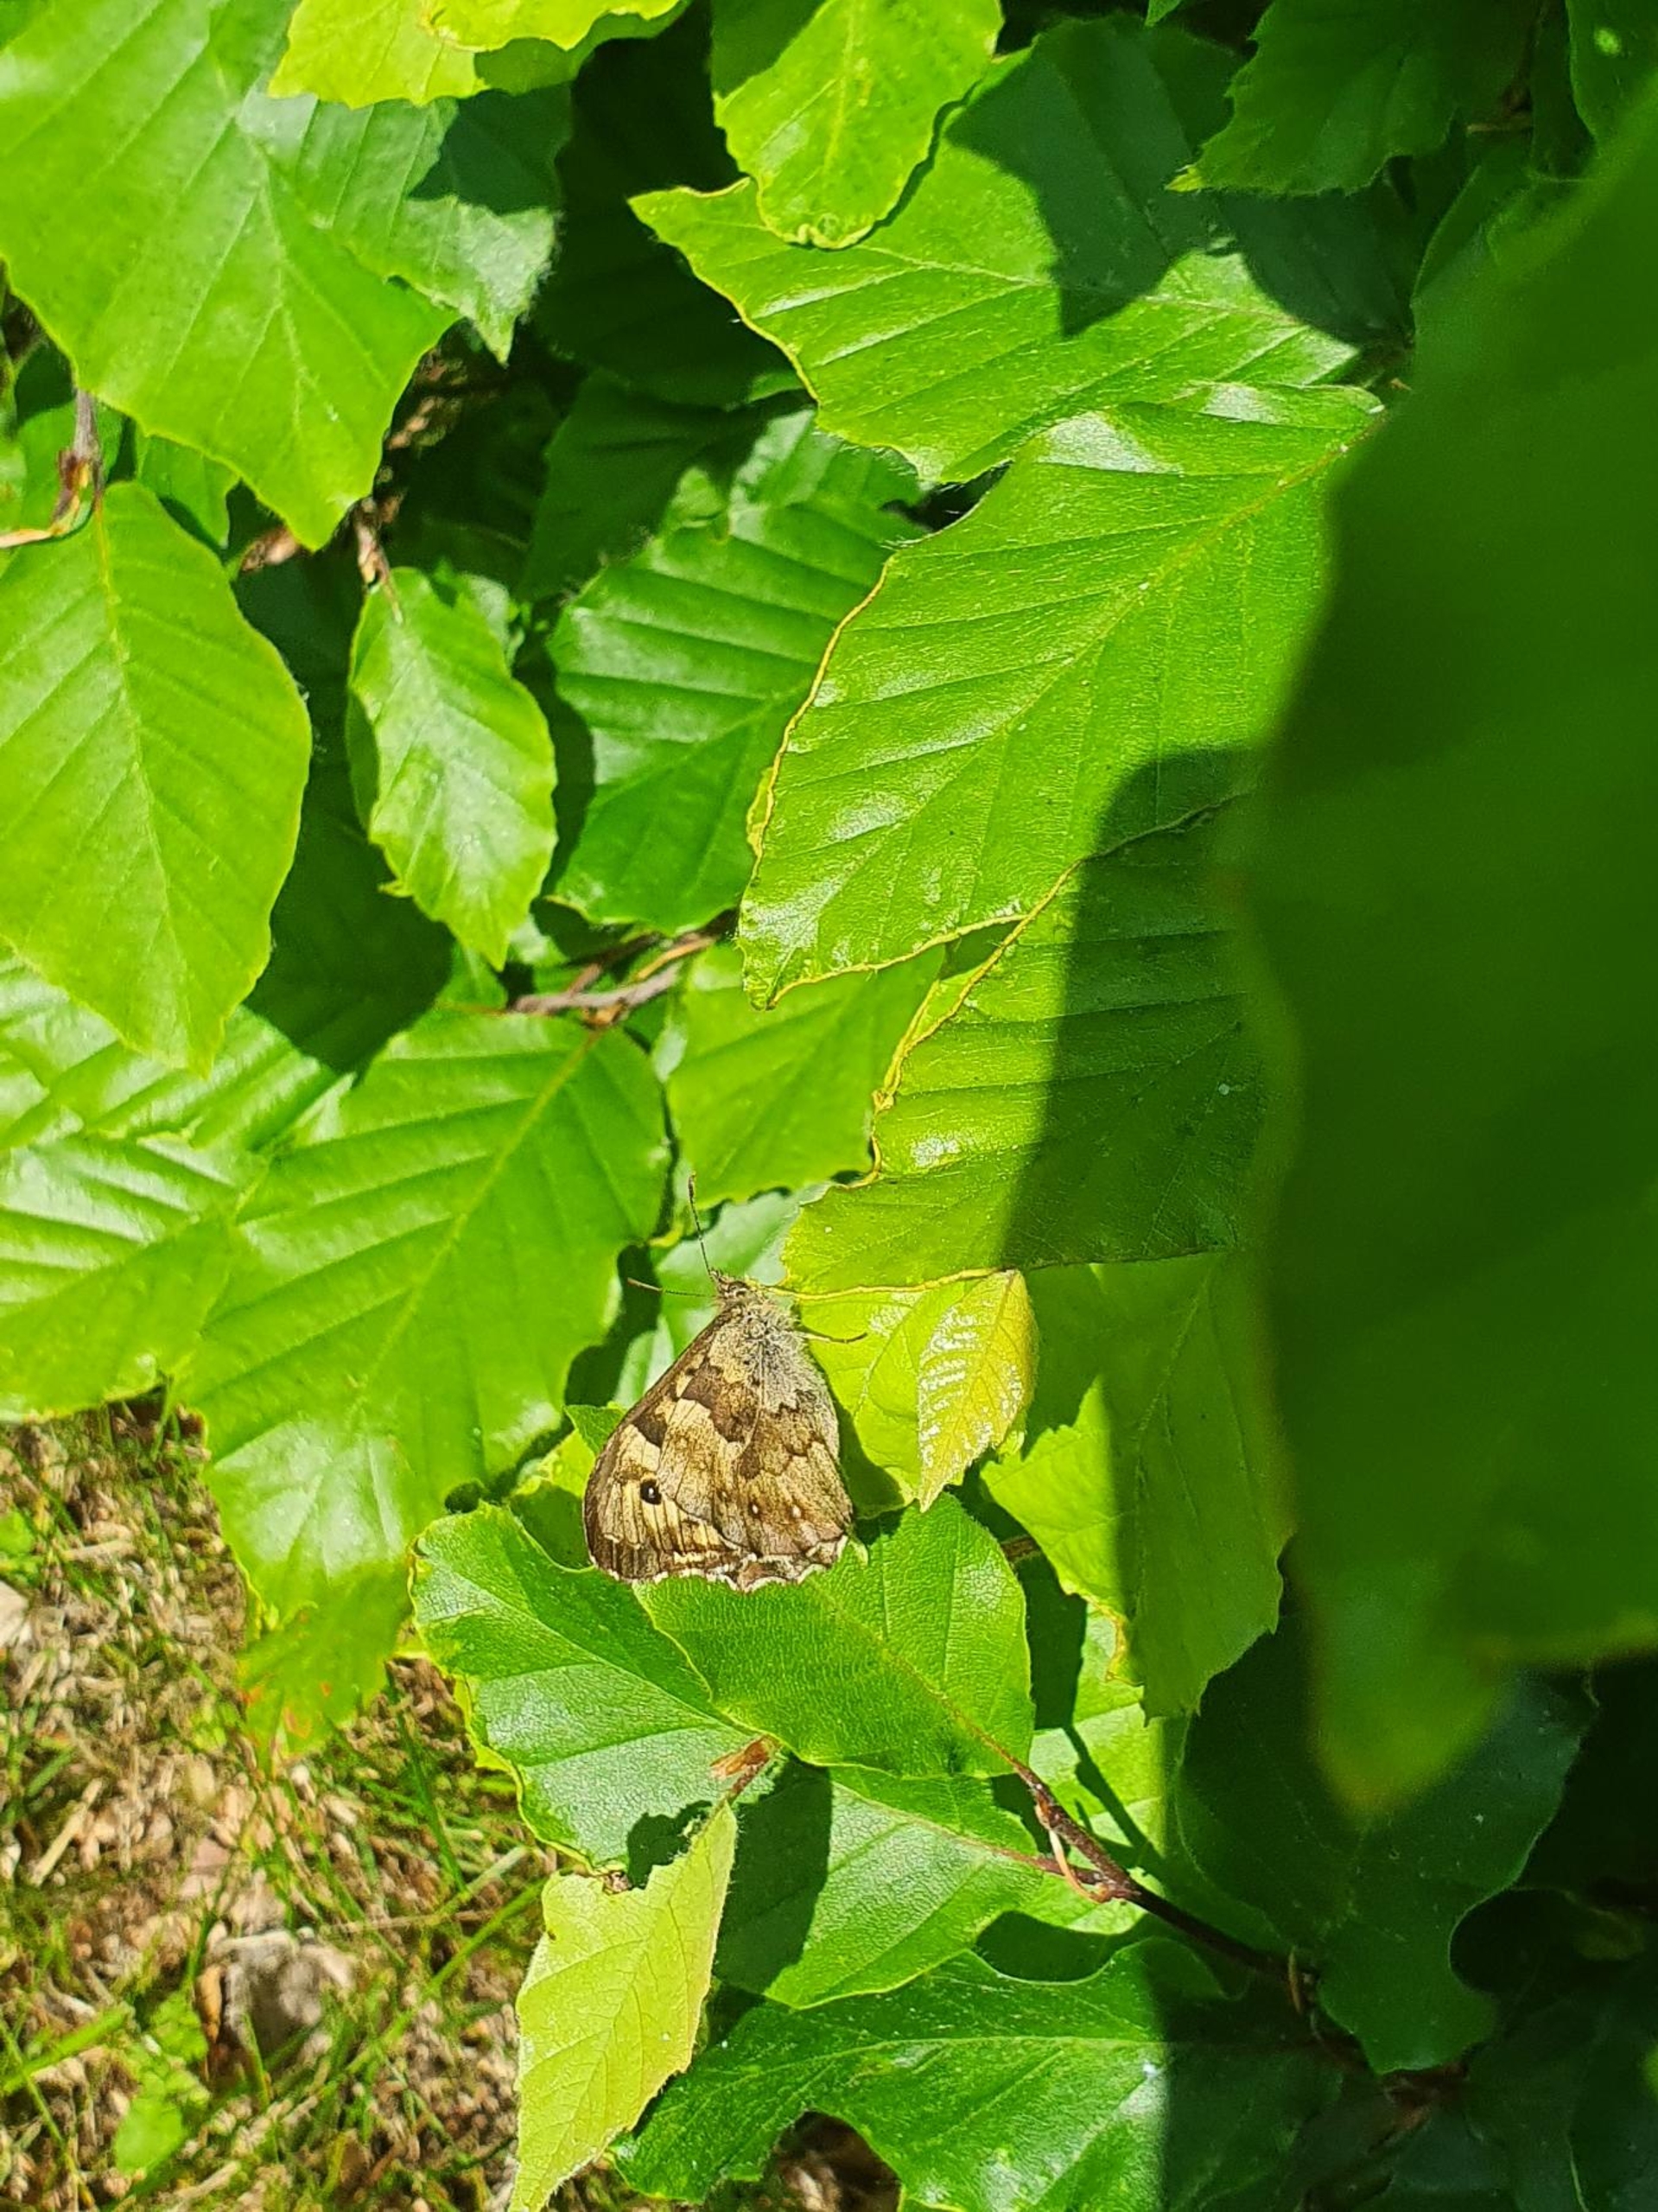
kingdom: Animalia
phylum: Arthropoda
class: Insecta
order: Lepidoptera
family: Nymphalidae
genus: Pararge
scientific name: Pararge aegeria
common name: Skovrandøje
